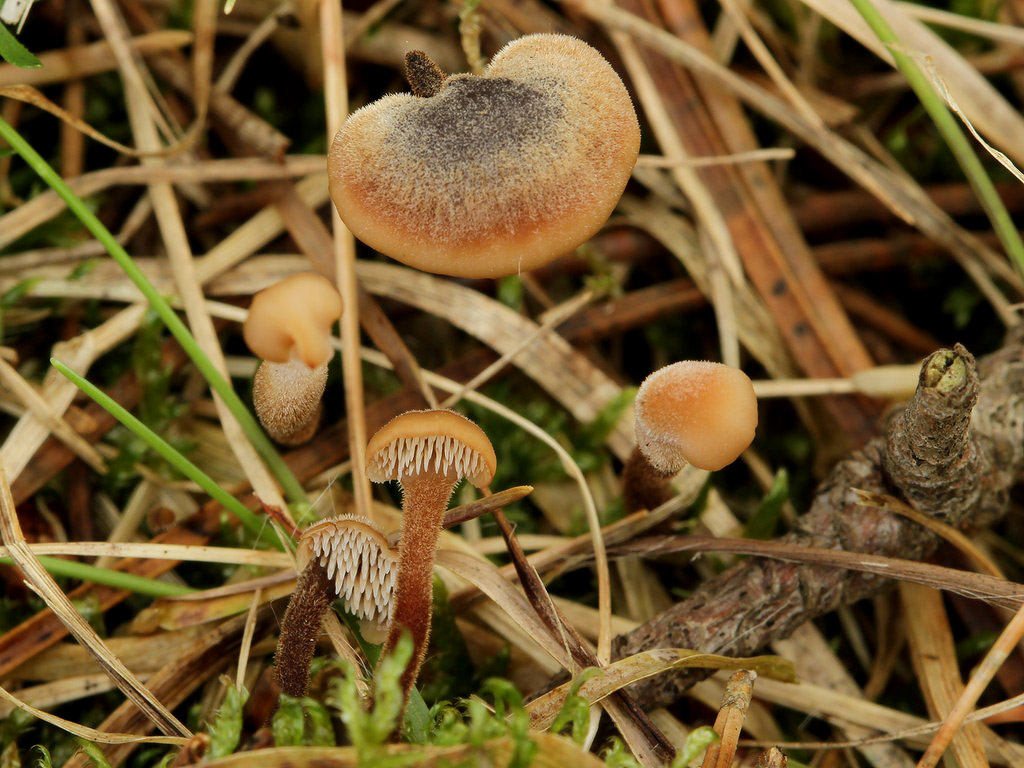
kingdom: Fungi
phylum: Basidiomycota
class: Agaricomycetes
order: Russulales
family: Auriscalpiaceae
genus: Auriscalpium
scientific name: Auriscalpium vulgare
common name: koglepigsvamp
